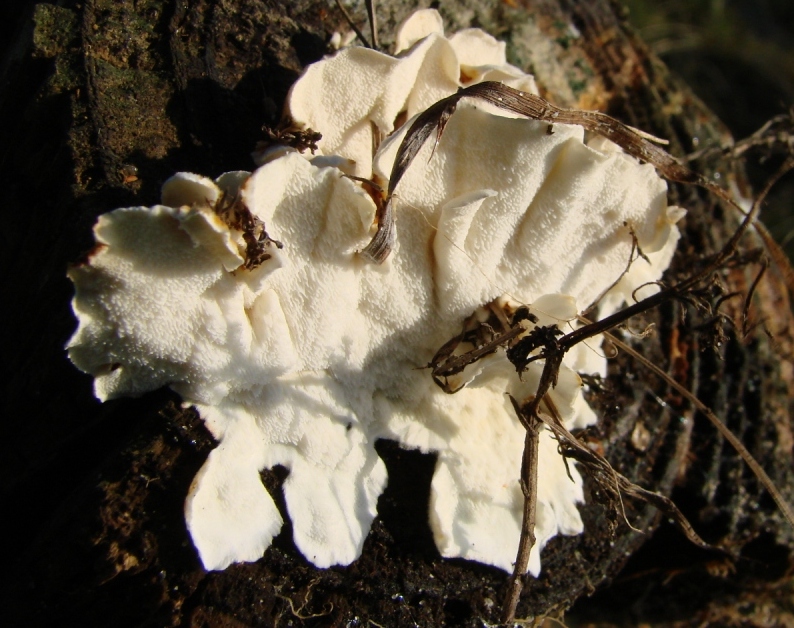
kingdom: Fungi
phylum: Basidiomycota
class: Agaricomycetes
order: Polyporales
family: Dacryobolaceae
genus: Oligoporus
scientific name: Oligoporus wakefieldiae
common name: række-kødporesvamp
